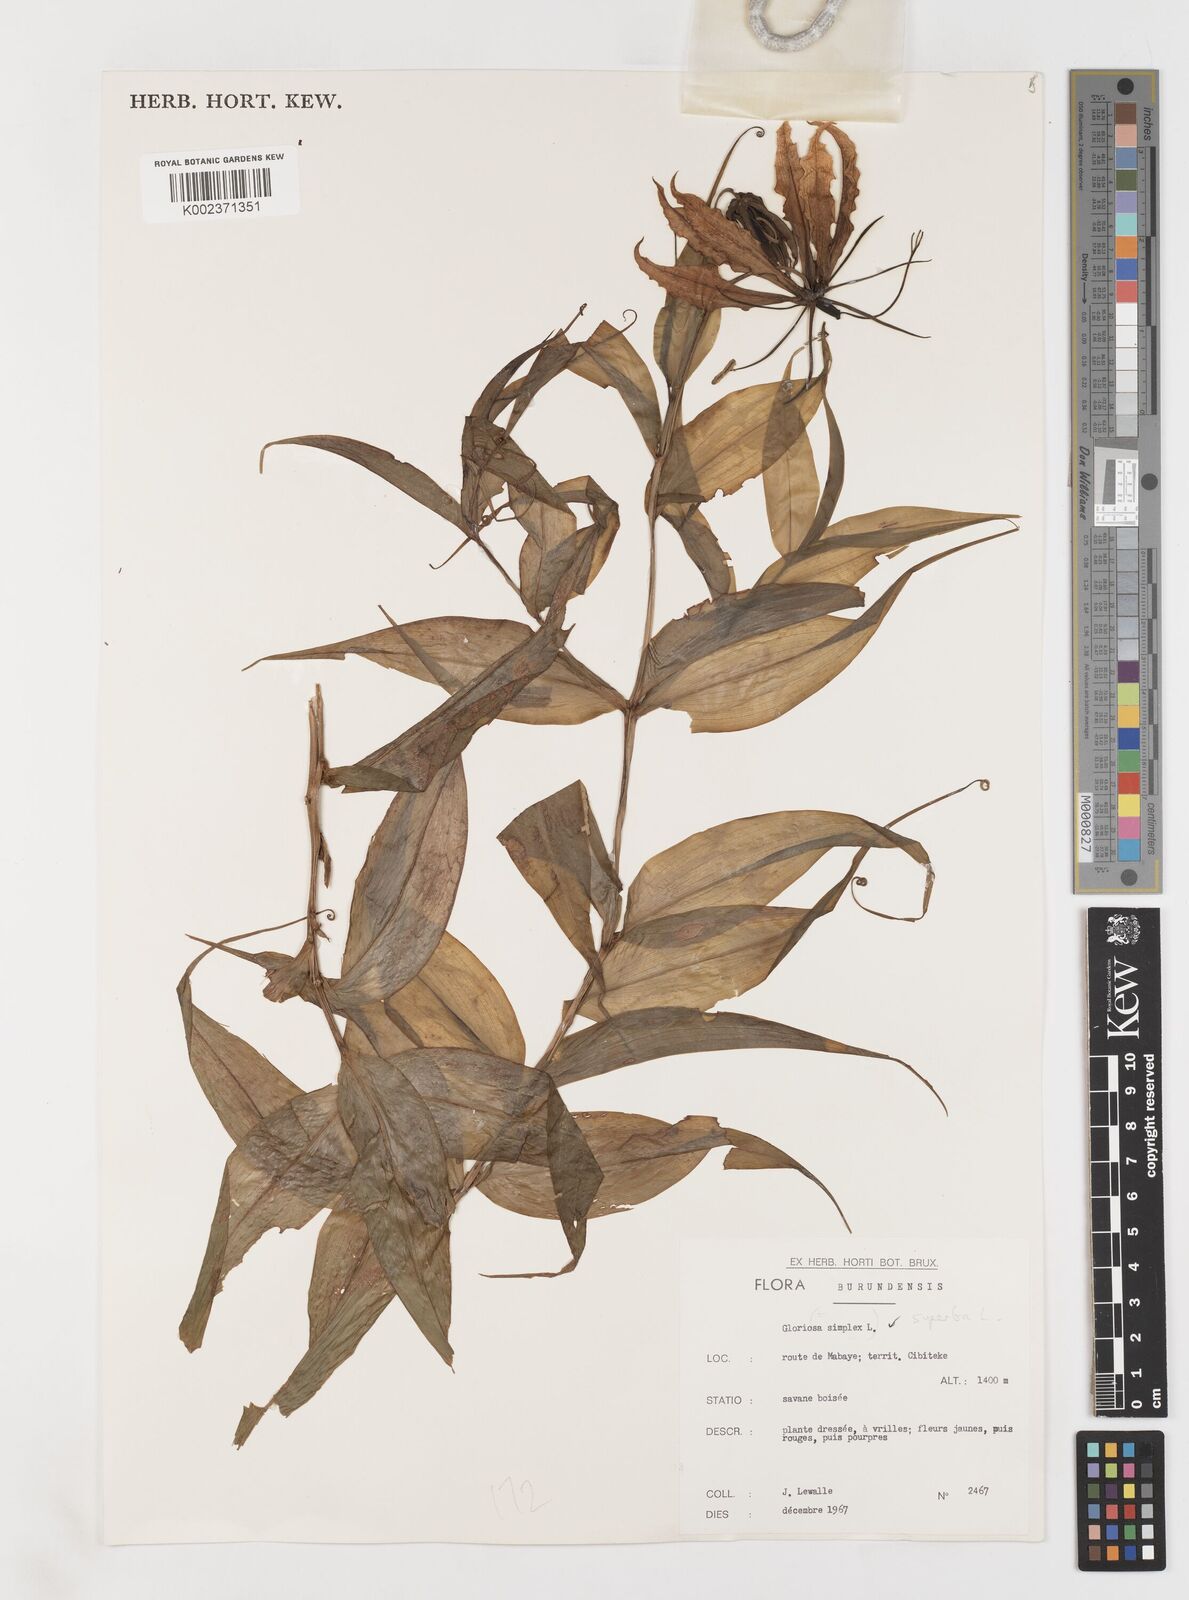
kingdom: Plantae
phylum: Tracheophyta
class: Liliopsida
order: Liliales
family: Colchicaceae
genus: Gloriosa
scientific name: Gloriosa superba
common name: Flame lily
